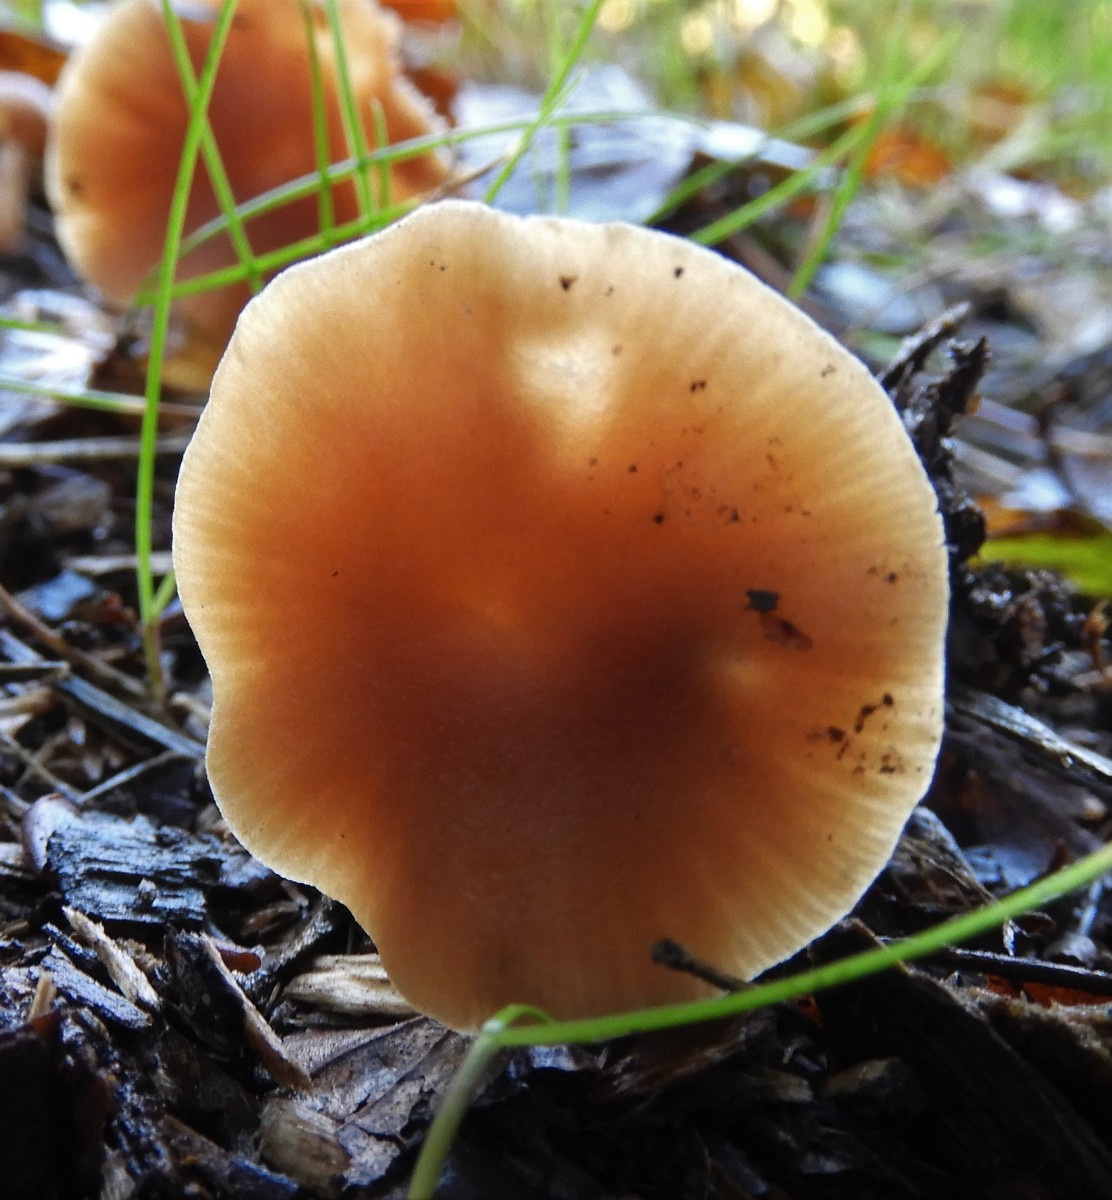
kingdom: Fungi
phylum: Basidiomycota
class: Agaricomycetes
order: Agaricales
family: Hydnangiaceae
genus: Laccaria
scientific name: Laccaria laccata
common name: rød ametysthat
